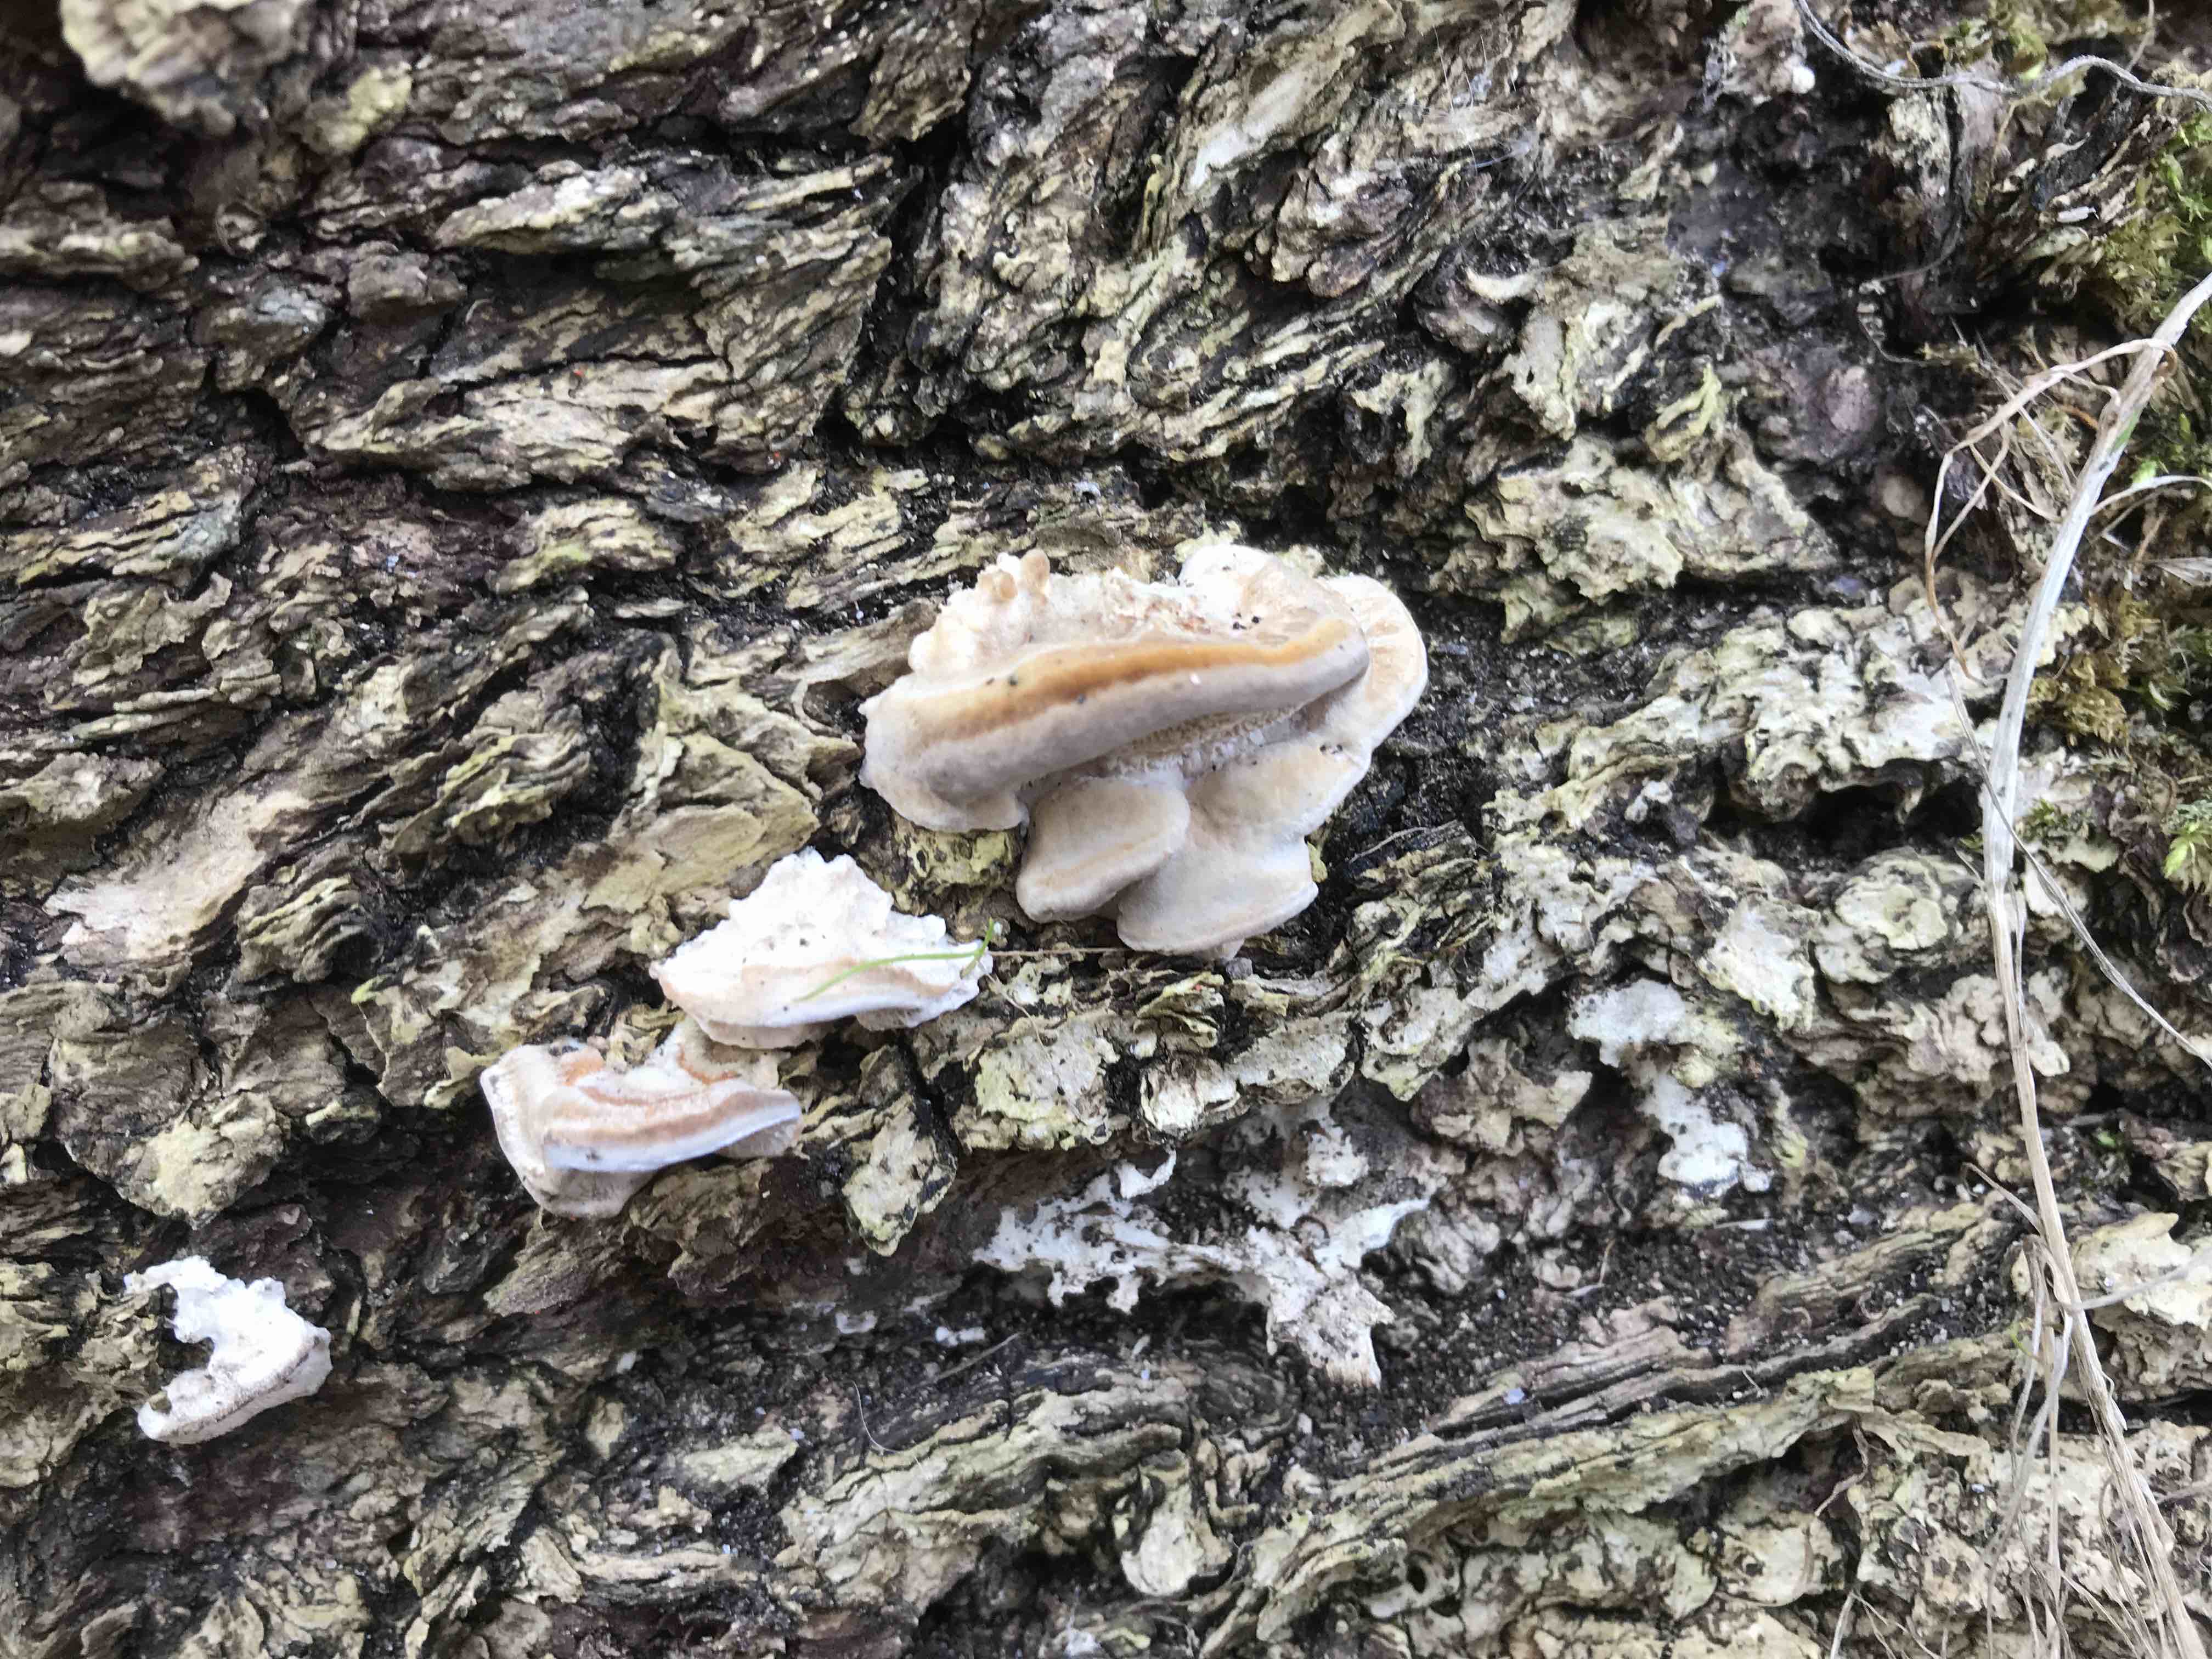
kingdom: Fungi
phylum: Basidiomycota
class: Agaricomycetes
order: Polyporales
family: Phanerochaetaceae
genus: Bjerkandera
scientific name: Bjerkandera fumosa
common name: grågul sodporesvamp
